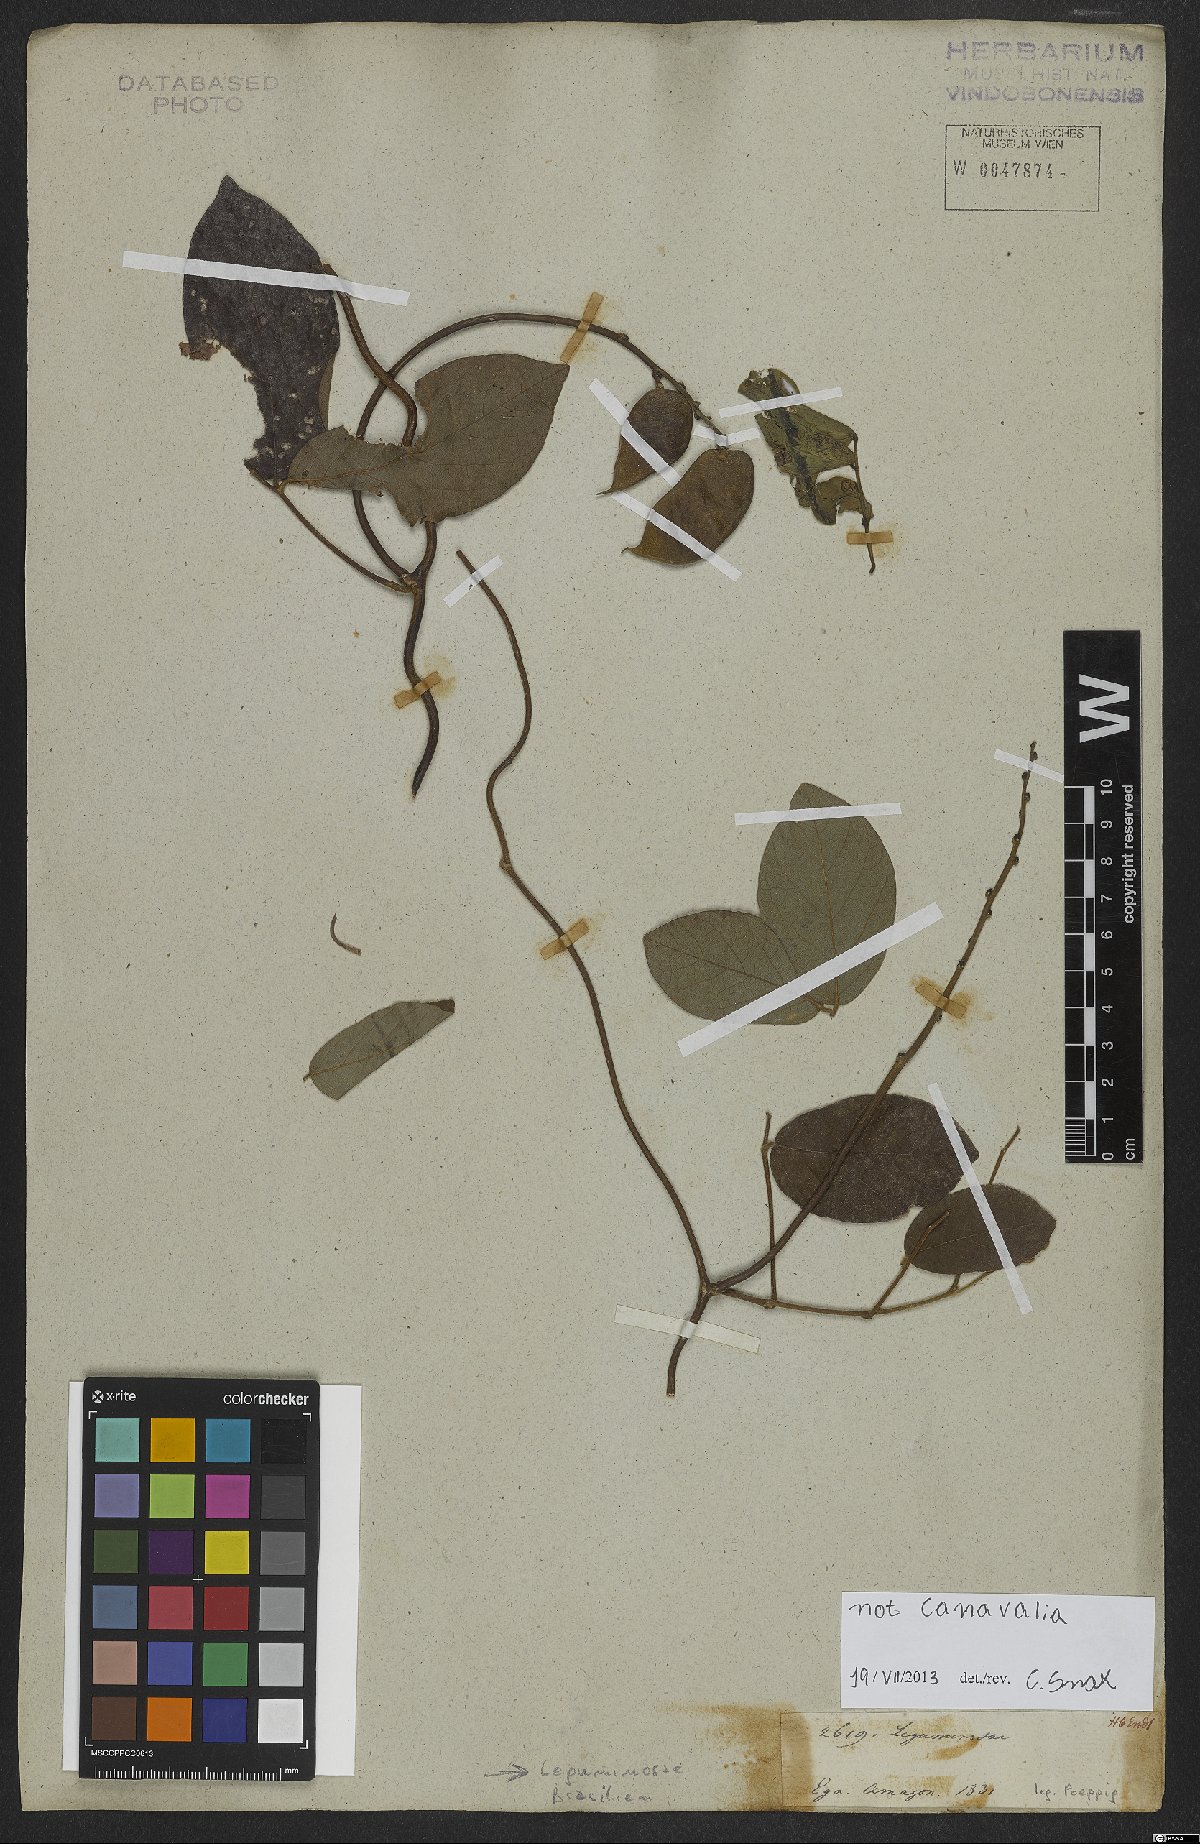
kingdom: Plantae
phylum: Tracheophyta
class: Magnoliopsida
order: Fabales
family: Fabaceae
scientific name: Fabaceae
